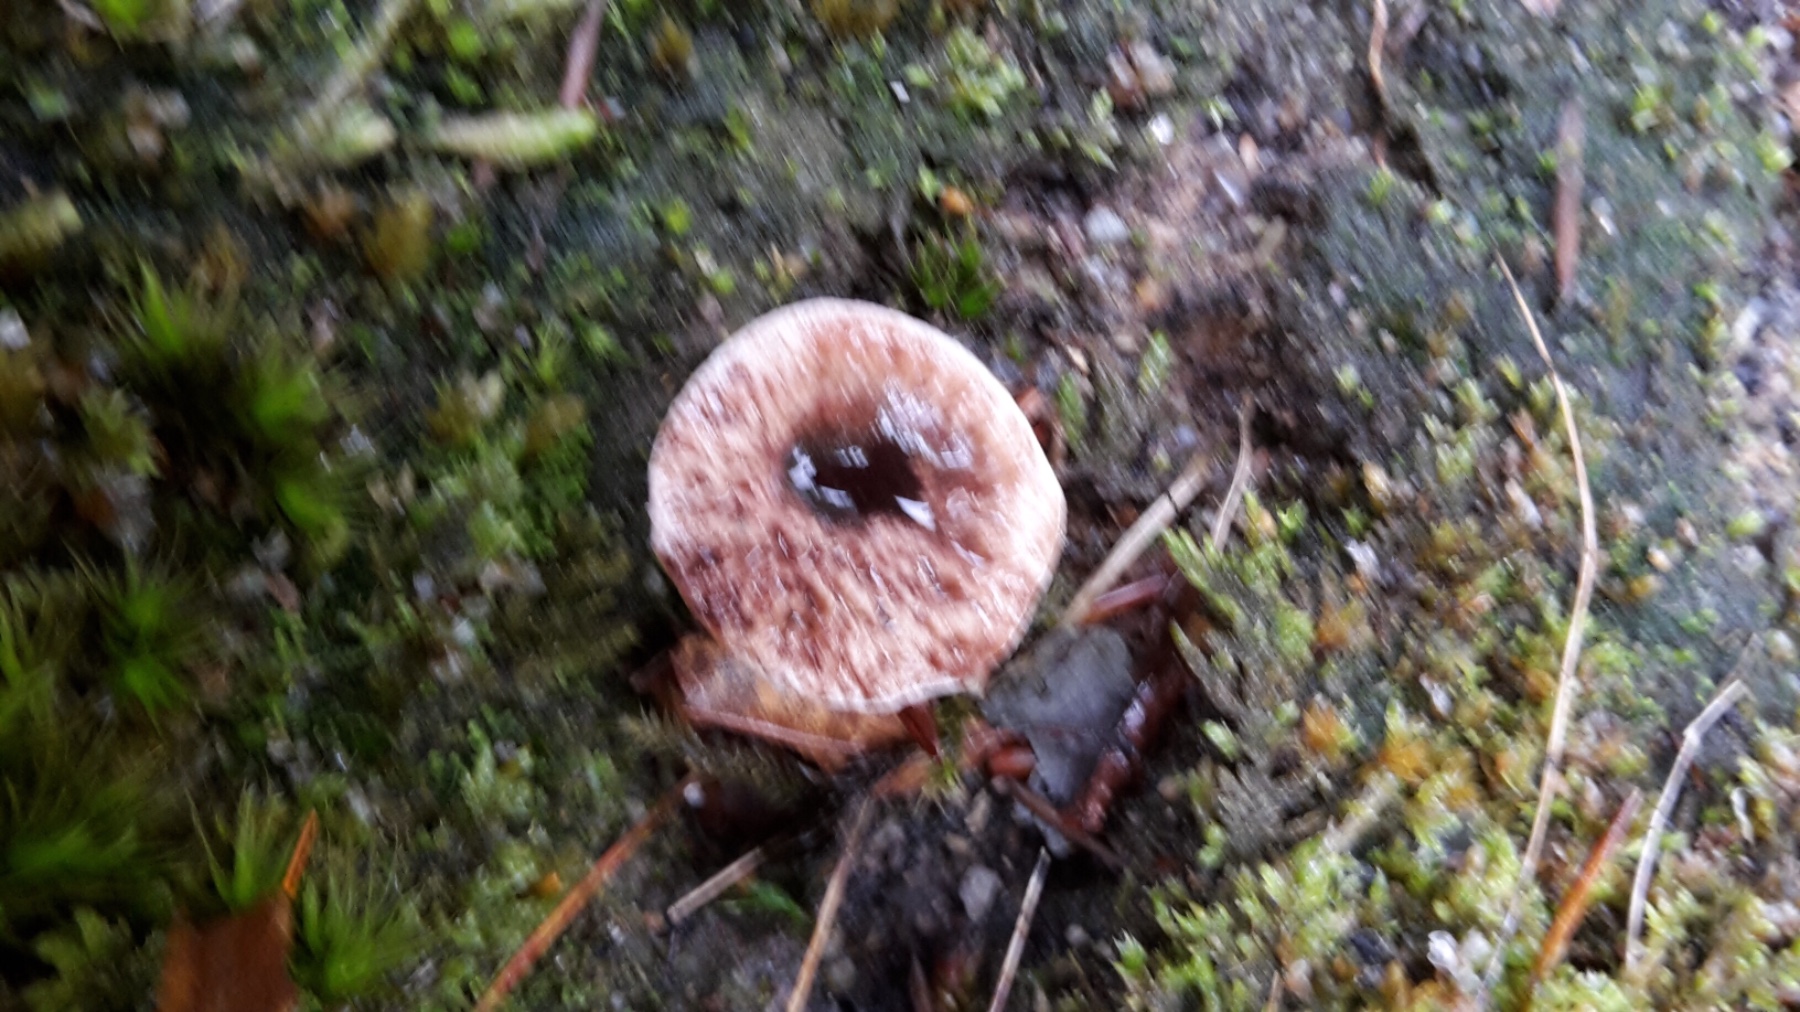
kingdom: Fungi
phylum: Basidiomycota
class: Agaricomycetes
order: Thelephorales
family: Bankeraceae
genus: Hydnellum
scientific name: Hydnellum concrescens
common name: Zoned tooth
